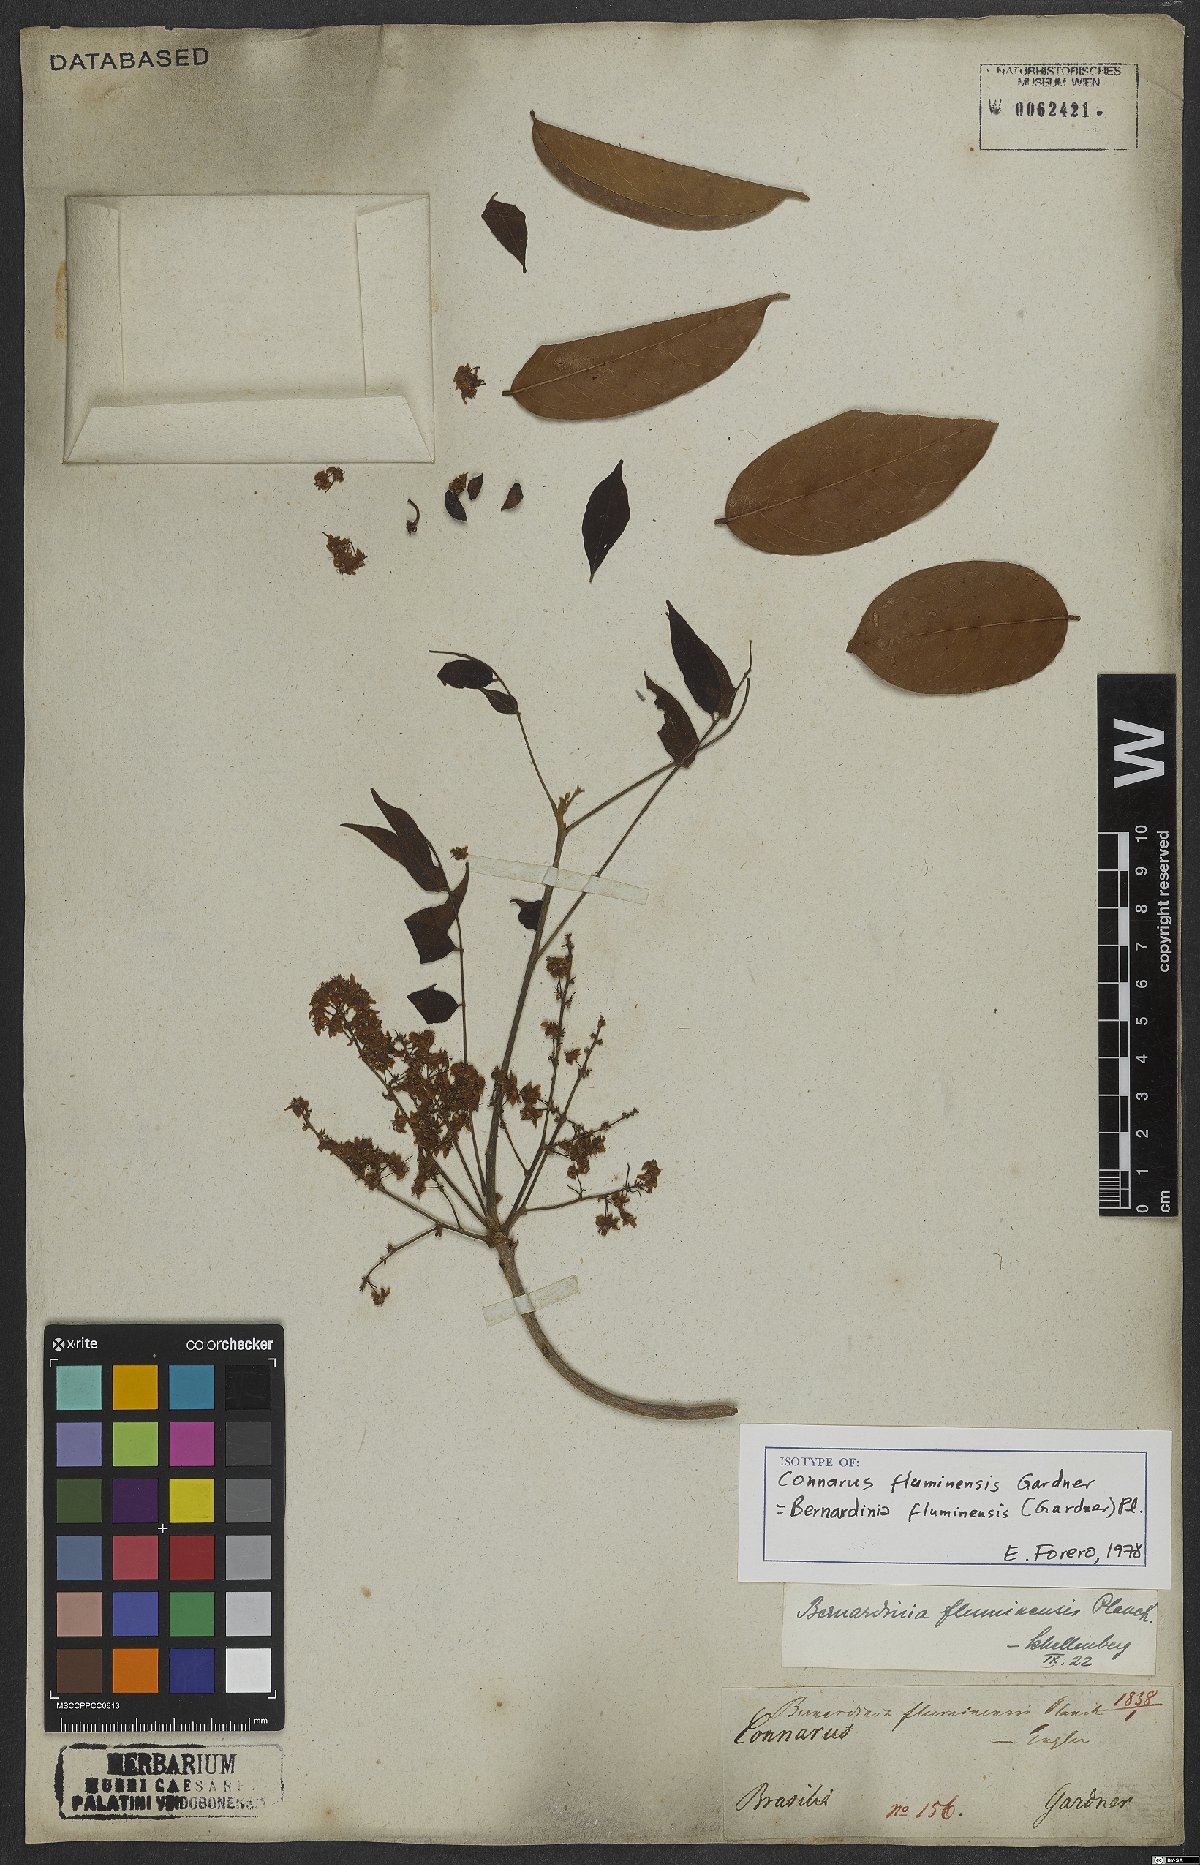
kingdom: Plantae
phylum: Tracheophyta
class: Magnoliopsida
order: Oxalidales
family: Connaraceae
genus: Rourea
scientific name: Rourea fluminensis
